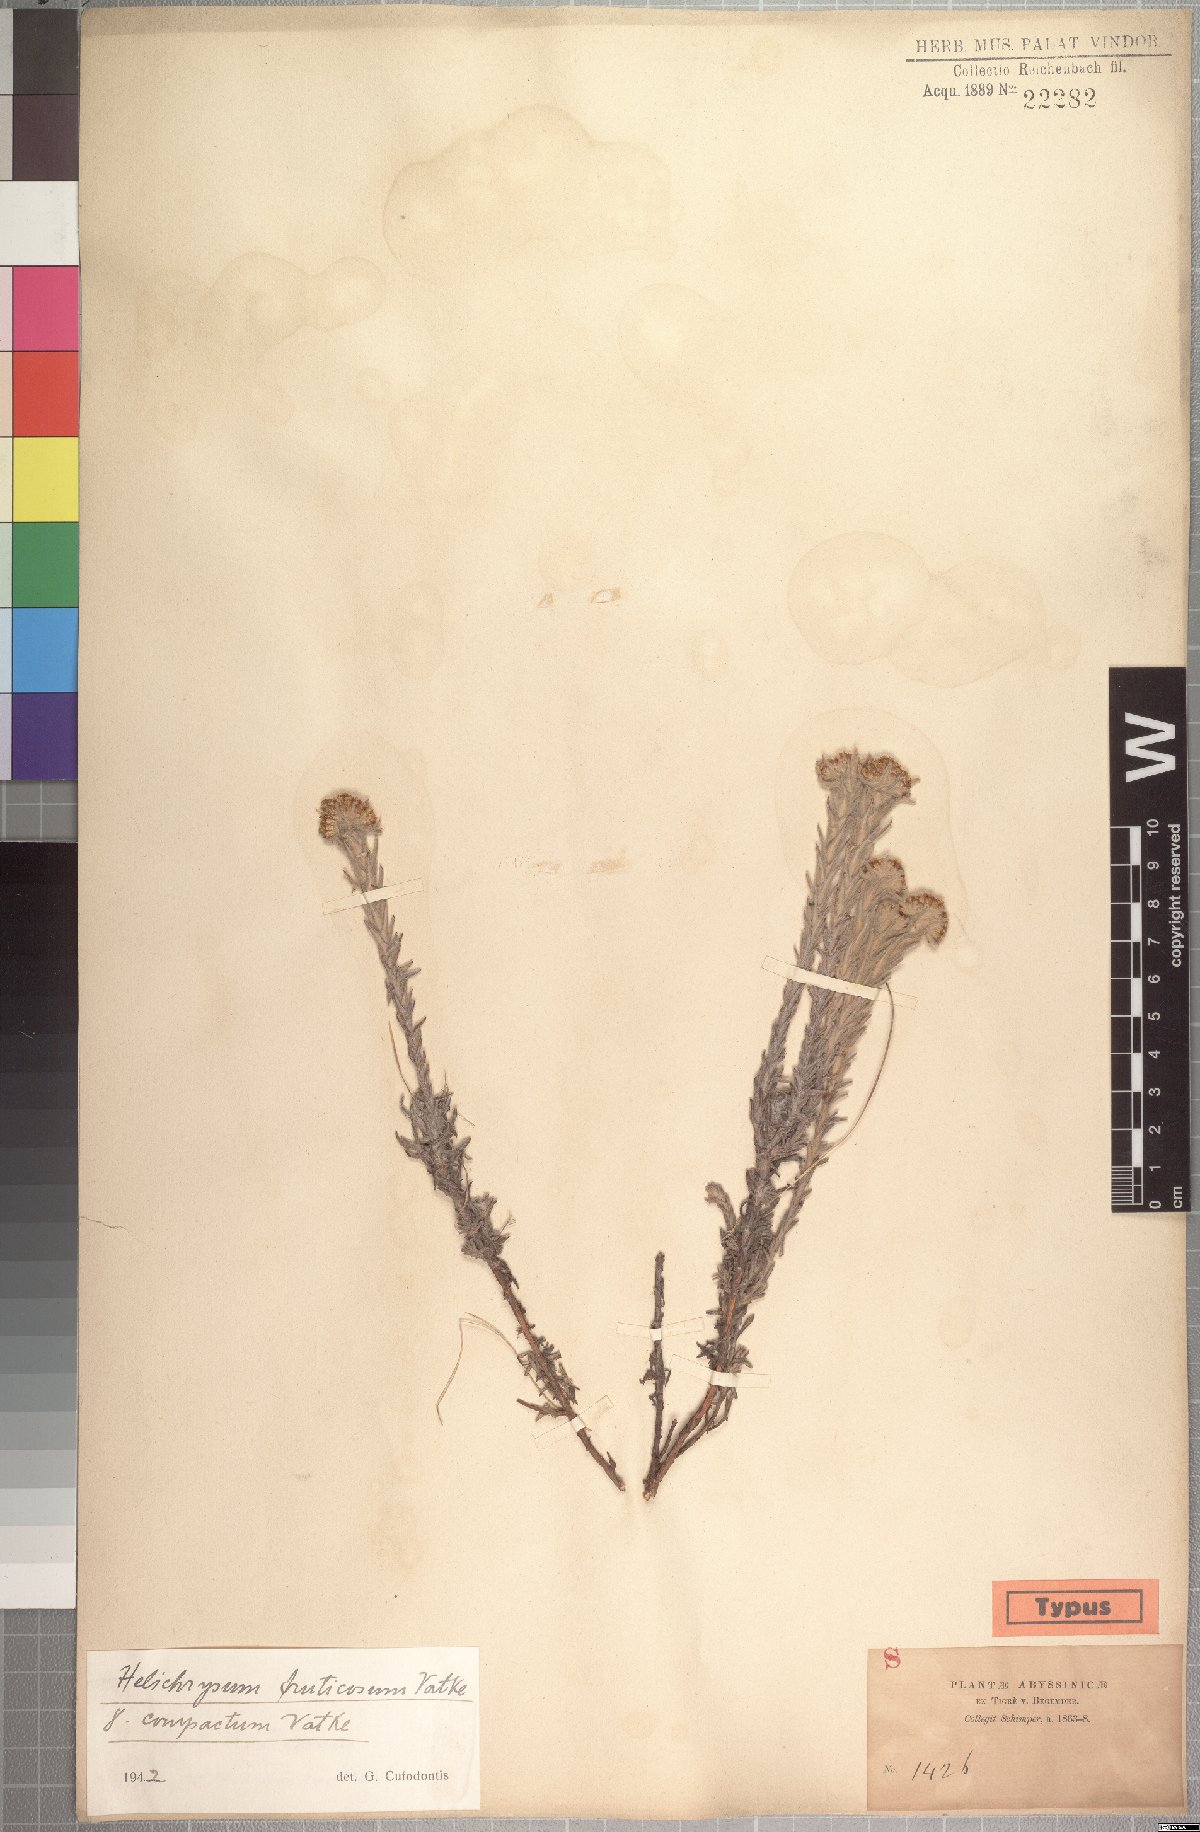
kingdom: Plantae
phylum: Tracheophyta
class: Magnoliopsida
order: Asterales
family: Asteraceae
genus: Helichrysum
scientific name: Helichrysum forskahlii
